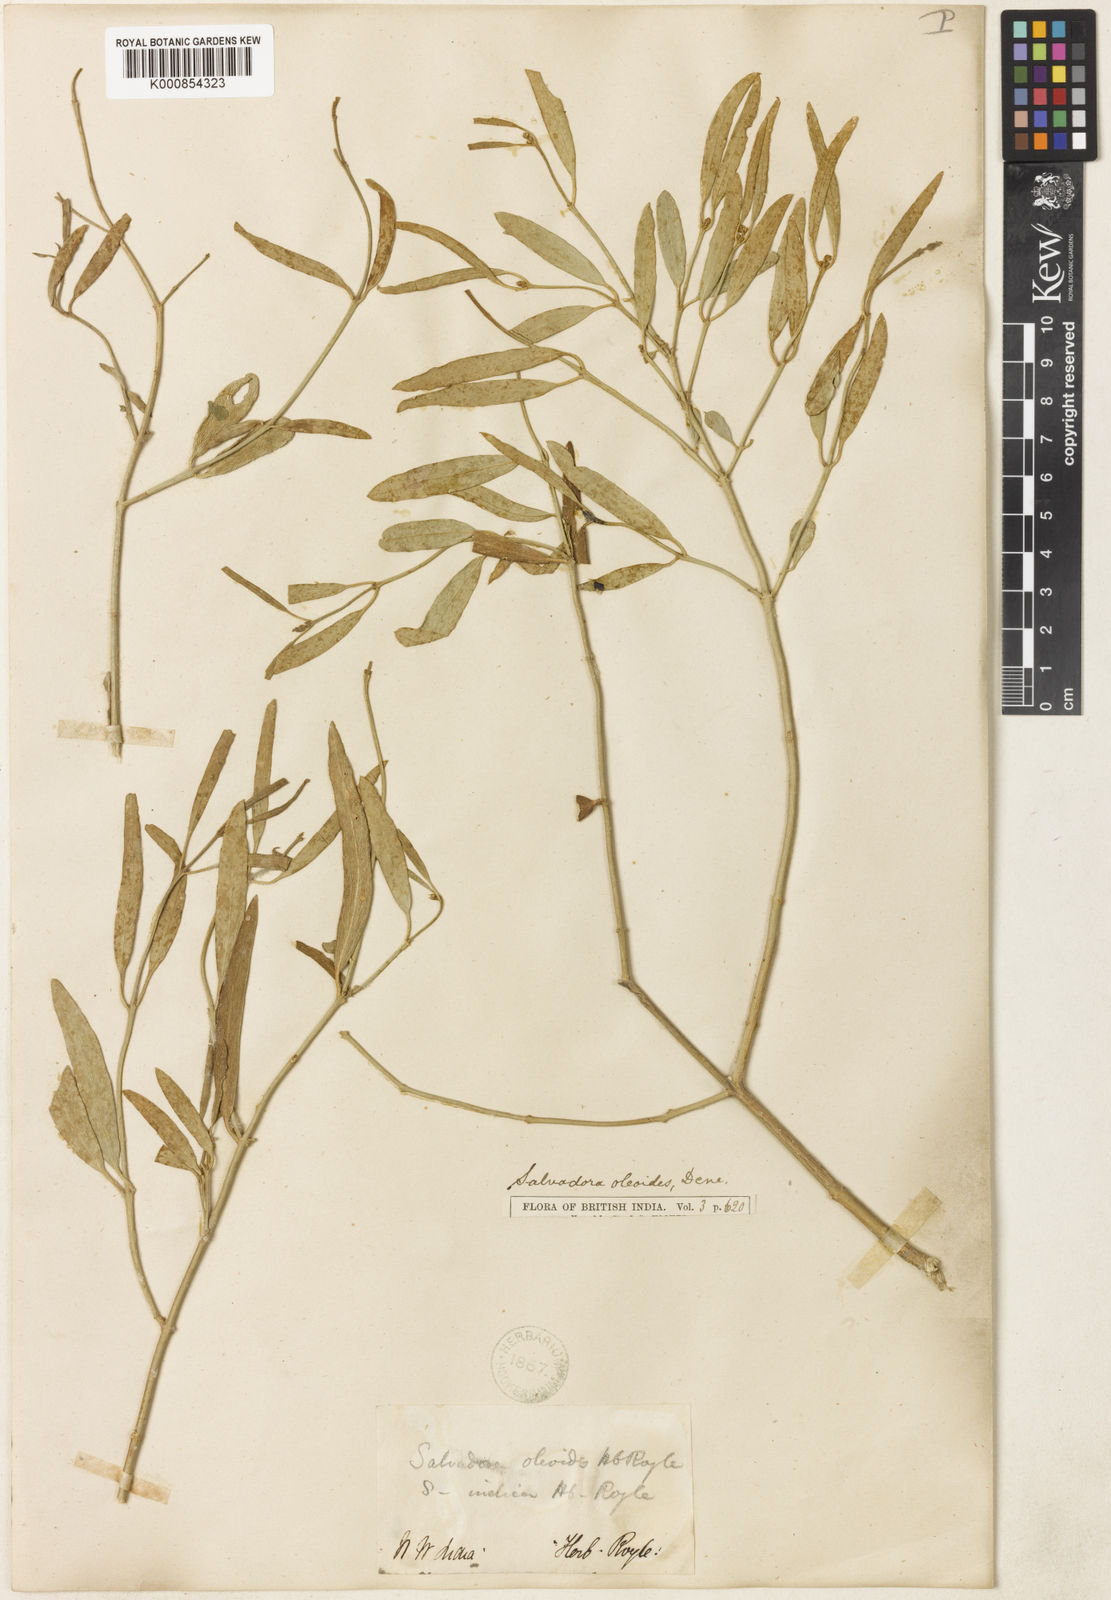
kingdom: Plantae
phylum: Tracheophyta
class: Magnoliopsida
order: Brassicales
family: Salvadoraceae
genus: Salvadora
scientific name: Salvadora
